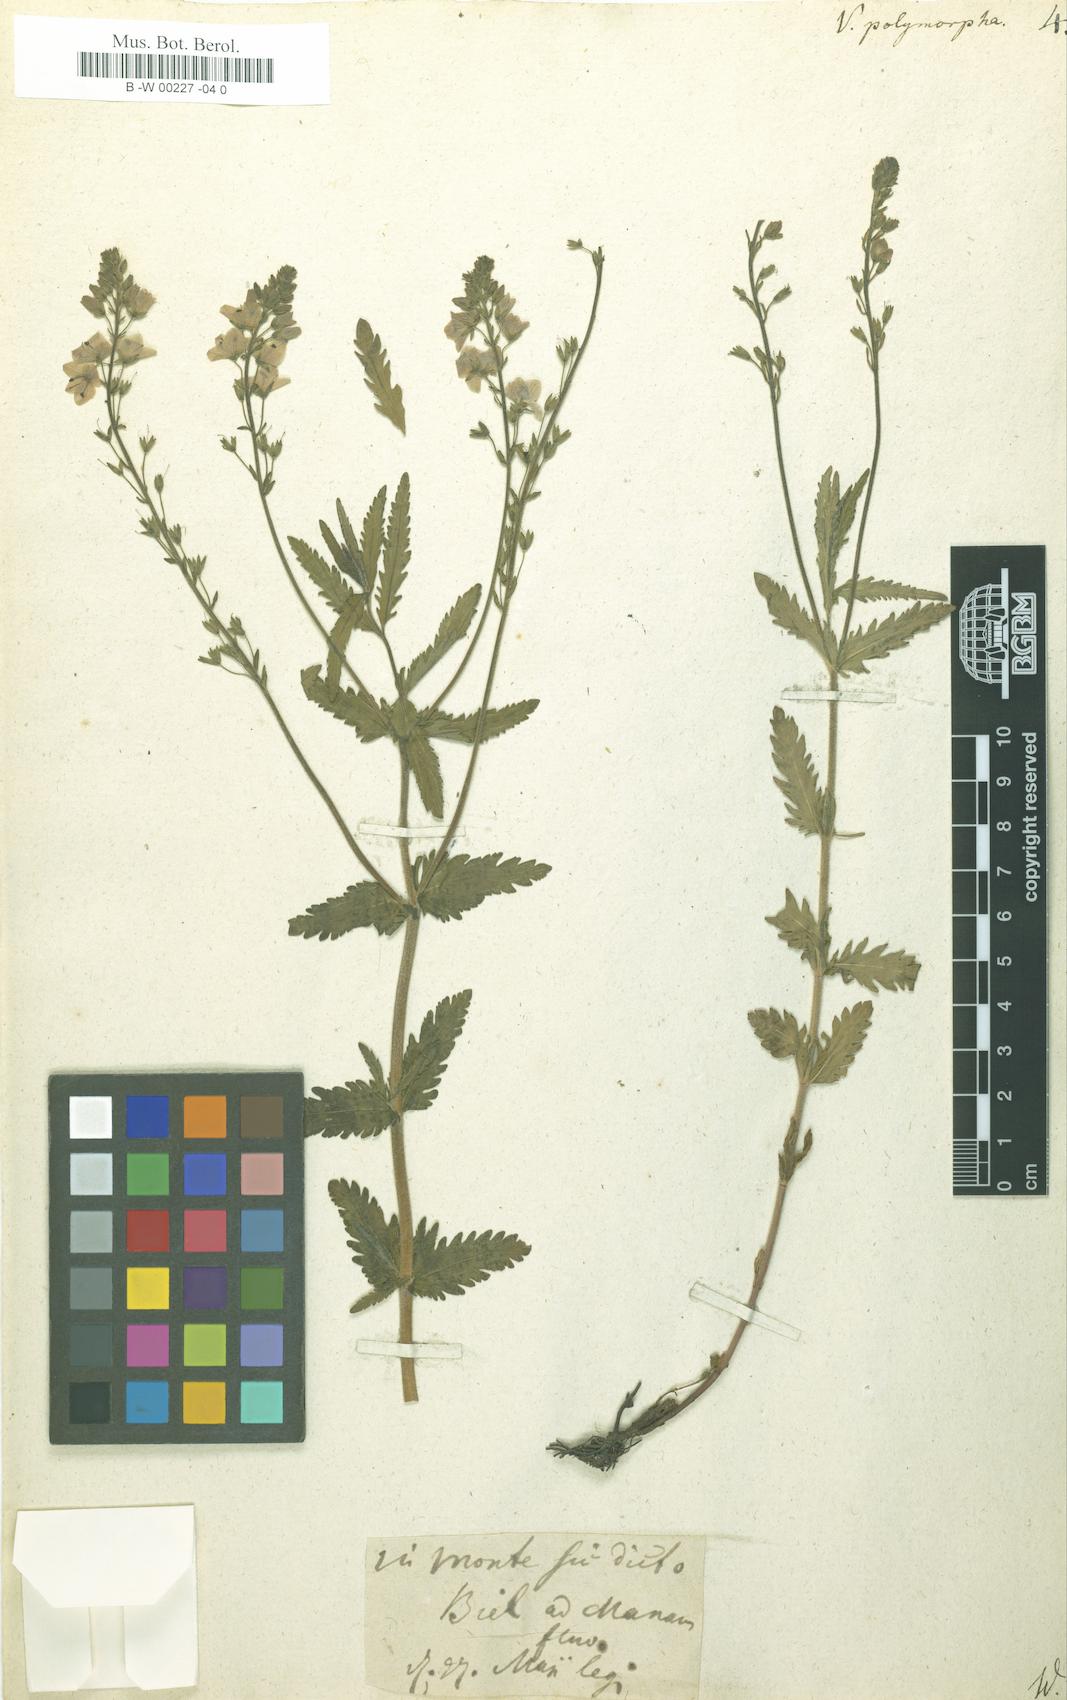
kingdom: Plantae
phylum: Tracheophyta
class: Magnoliopsida
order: Lamiales
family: Plantaginaceae
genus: Veronica
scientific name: Veronica austriaca
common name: Large speedwell
